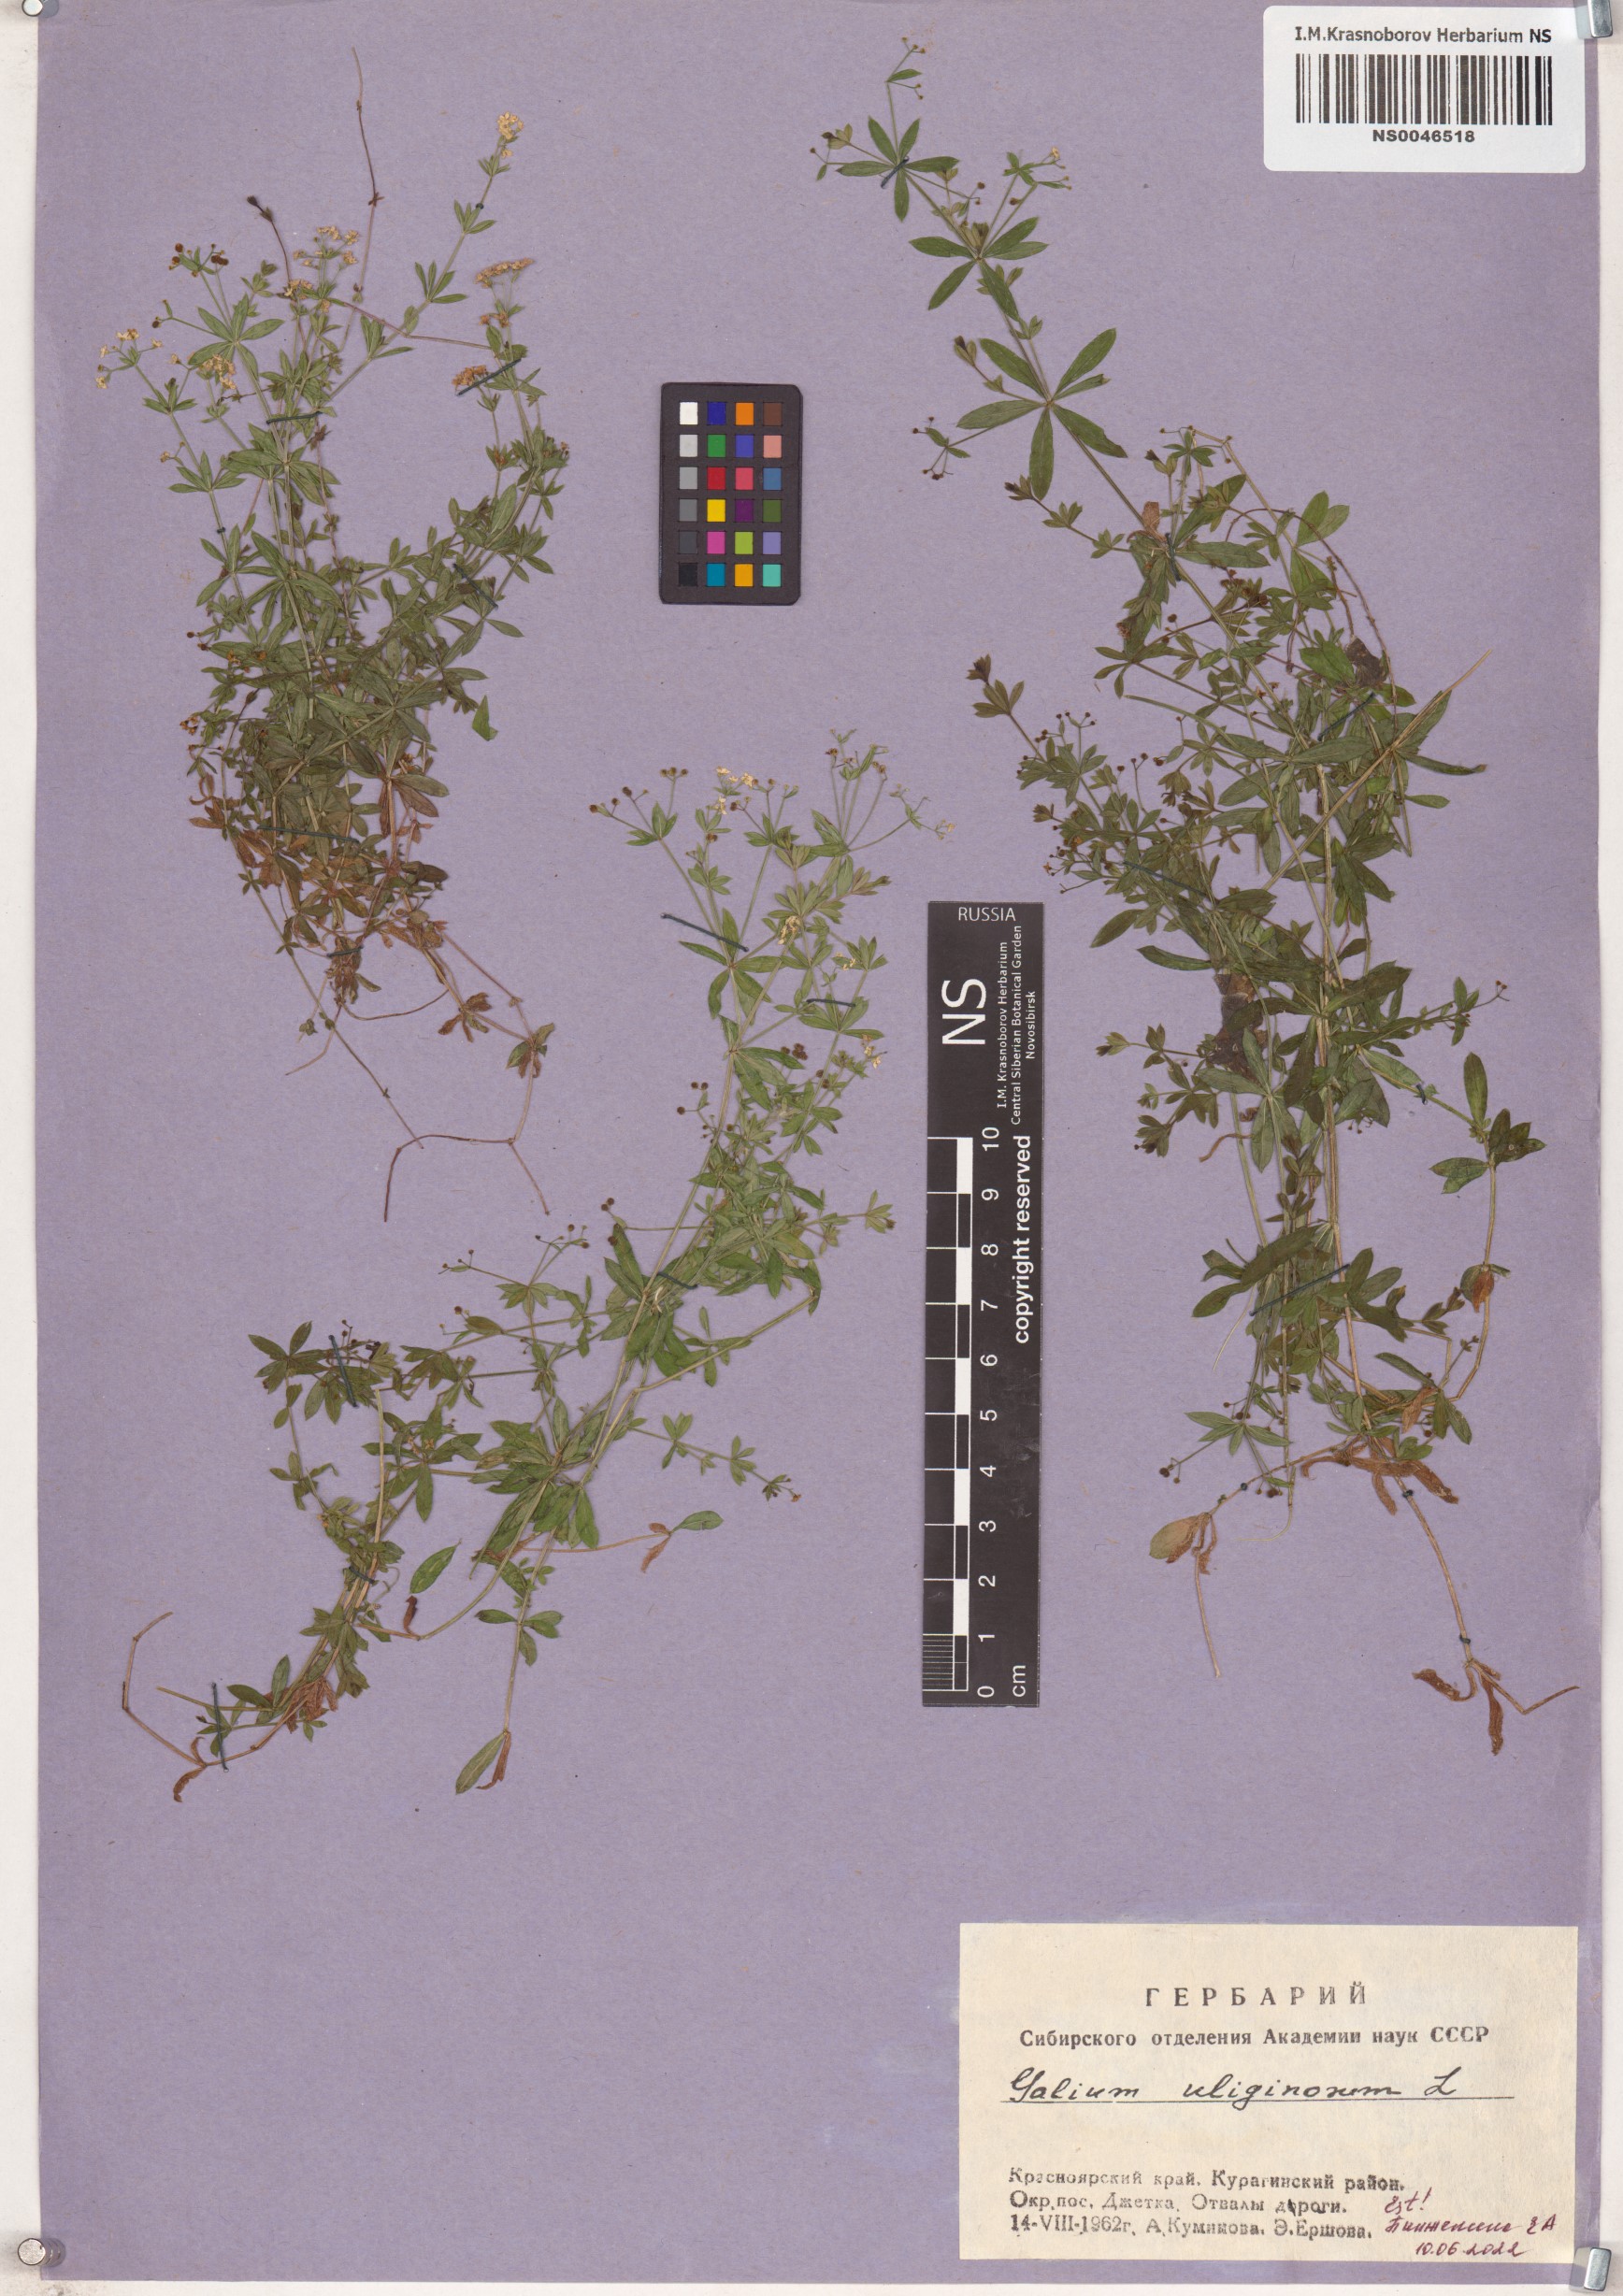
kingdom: Plantae
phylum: Tracheophyta
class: Magnoliopsida
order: Gentianales
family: Rubiaceae
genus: Galium
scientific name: Galium uliginosum
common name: Fen bedstraw
